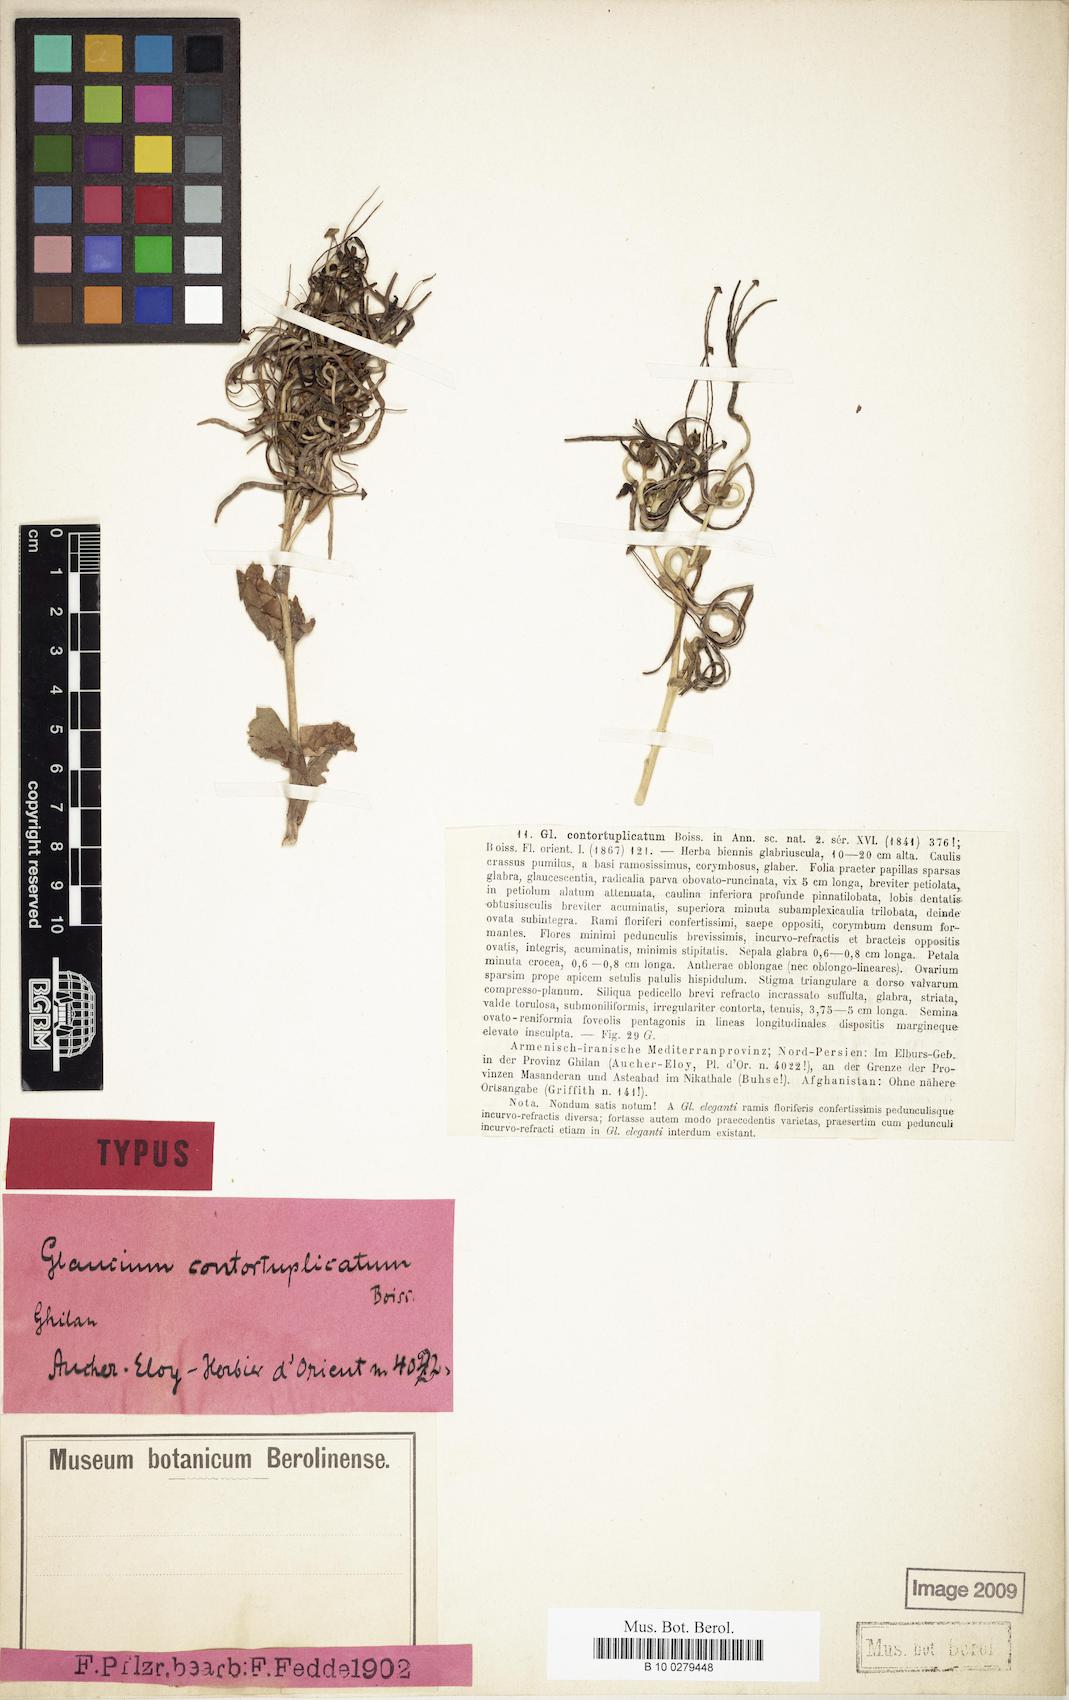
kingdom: Plantae
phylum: Tracheophyta
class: Magnoliopsida
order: Ranunculales
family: Papaveraceae
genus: Glaucium
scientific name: Glaucium contortuplicatum
